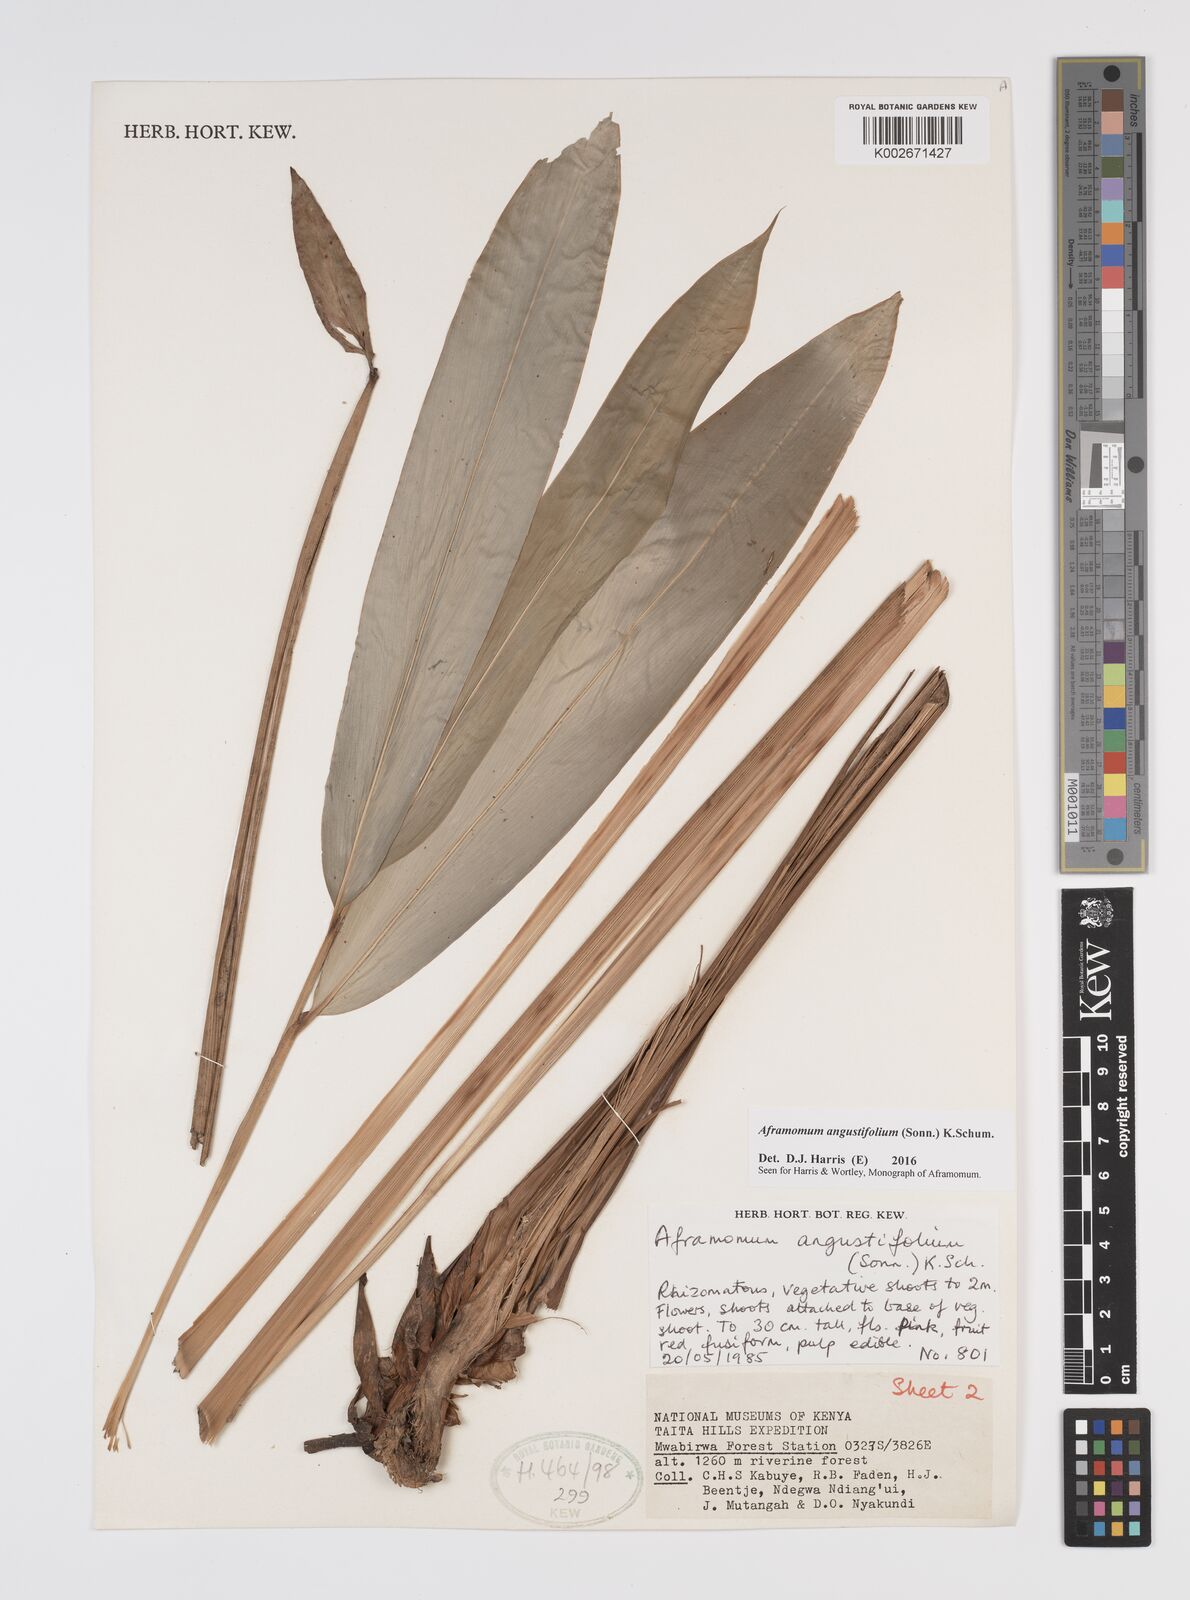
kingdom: Plantae
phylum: Tracheophyta
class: Liliopsida
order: Zingiberales
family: Zingiberaceae
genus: Aframomum
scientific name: Aframomum angustifolium
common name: Guinea grains
